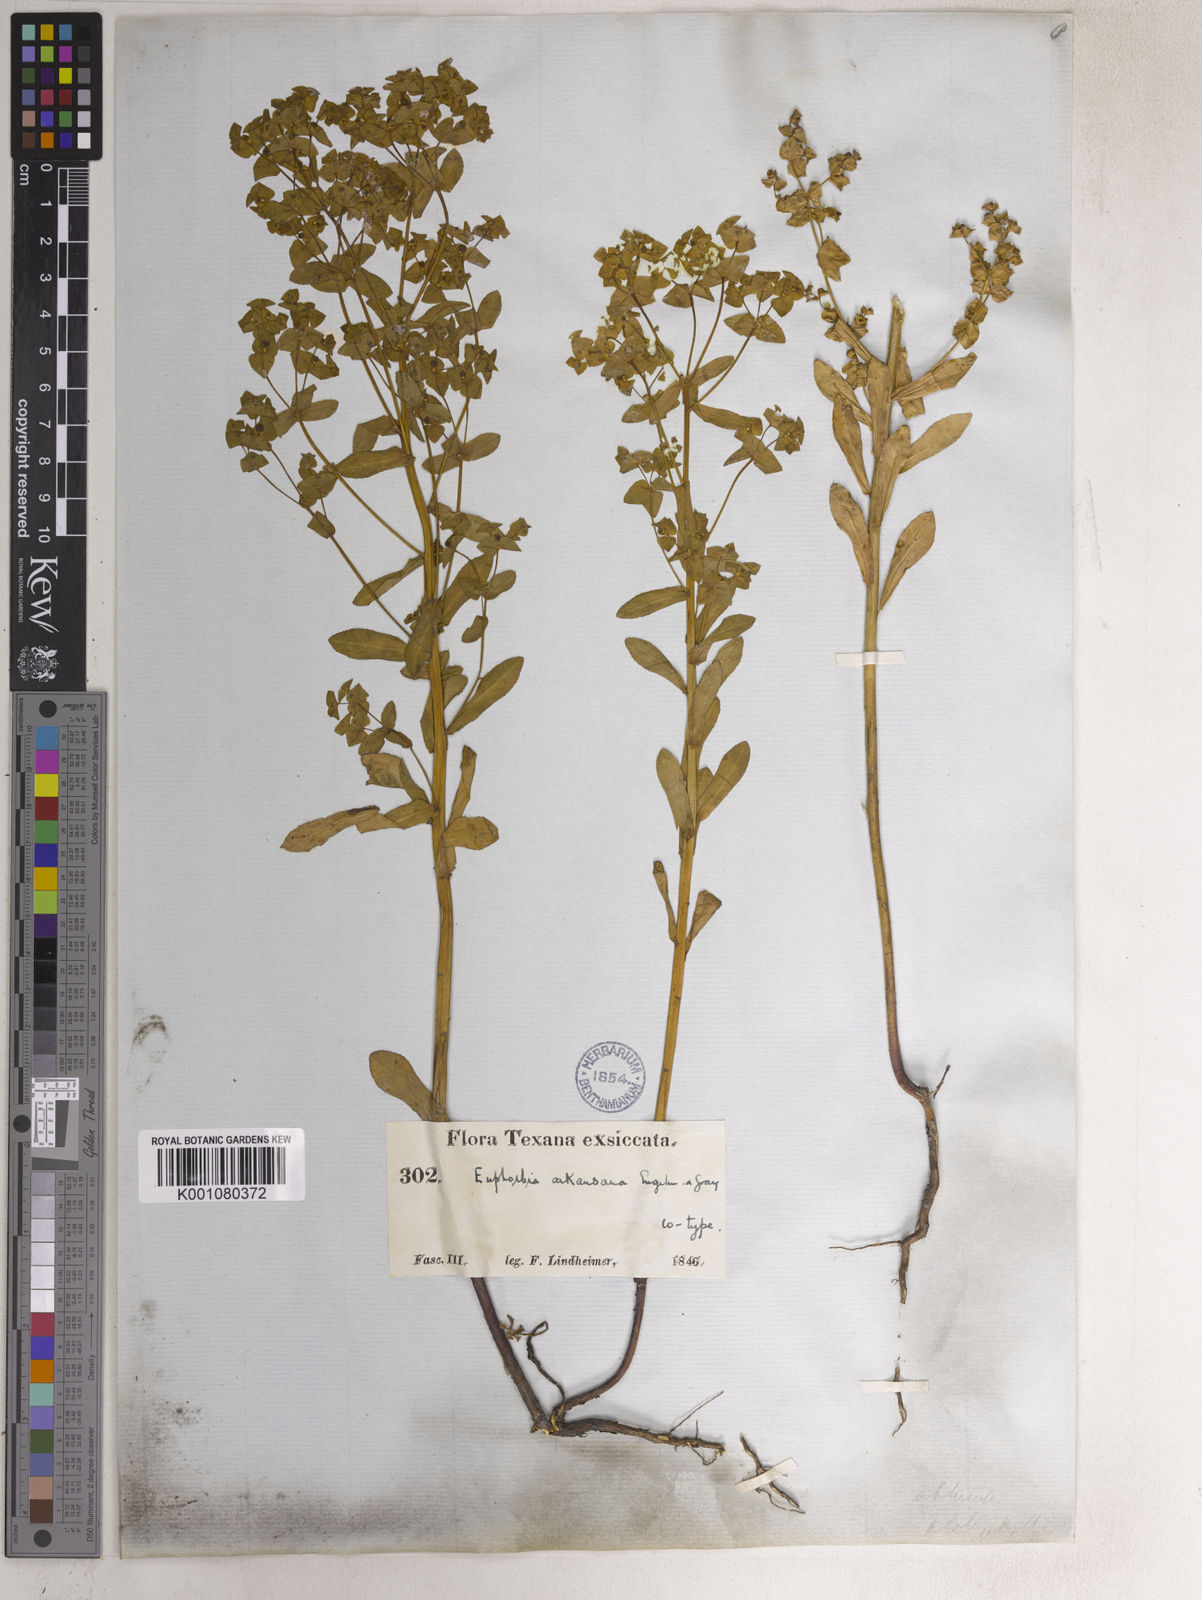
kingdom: Plantae
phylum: Tracheophyta
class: Magnoliopsida
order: Malpighiales
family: Euphorbiaceae
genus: Euphorbia
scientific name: Euphorbia spathulata
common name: Blunt spurge
